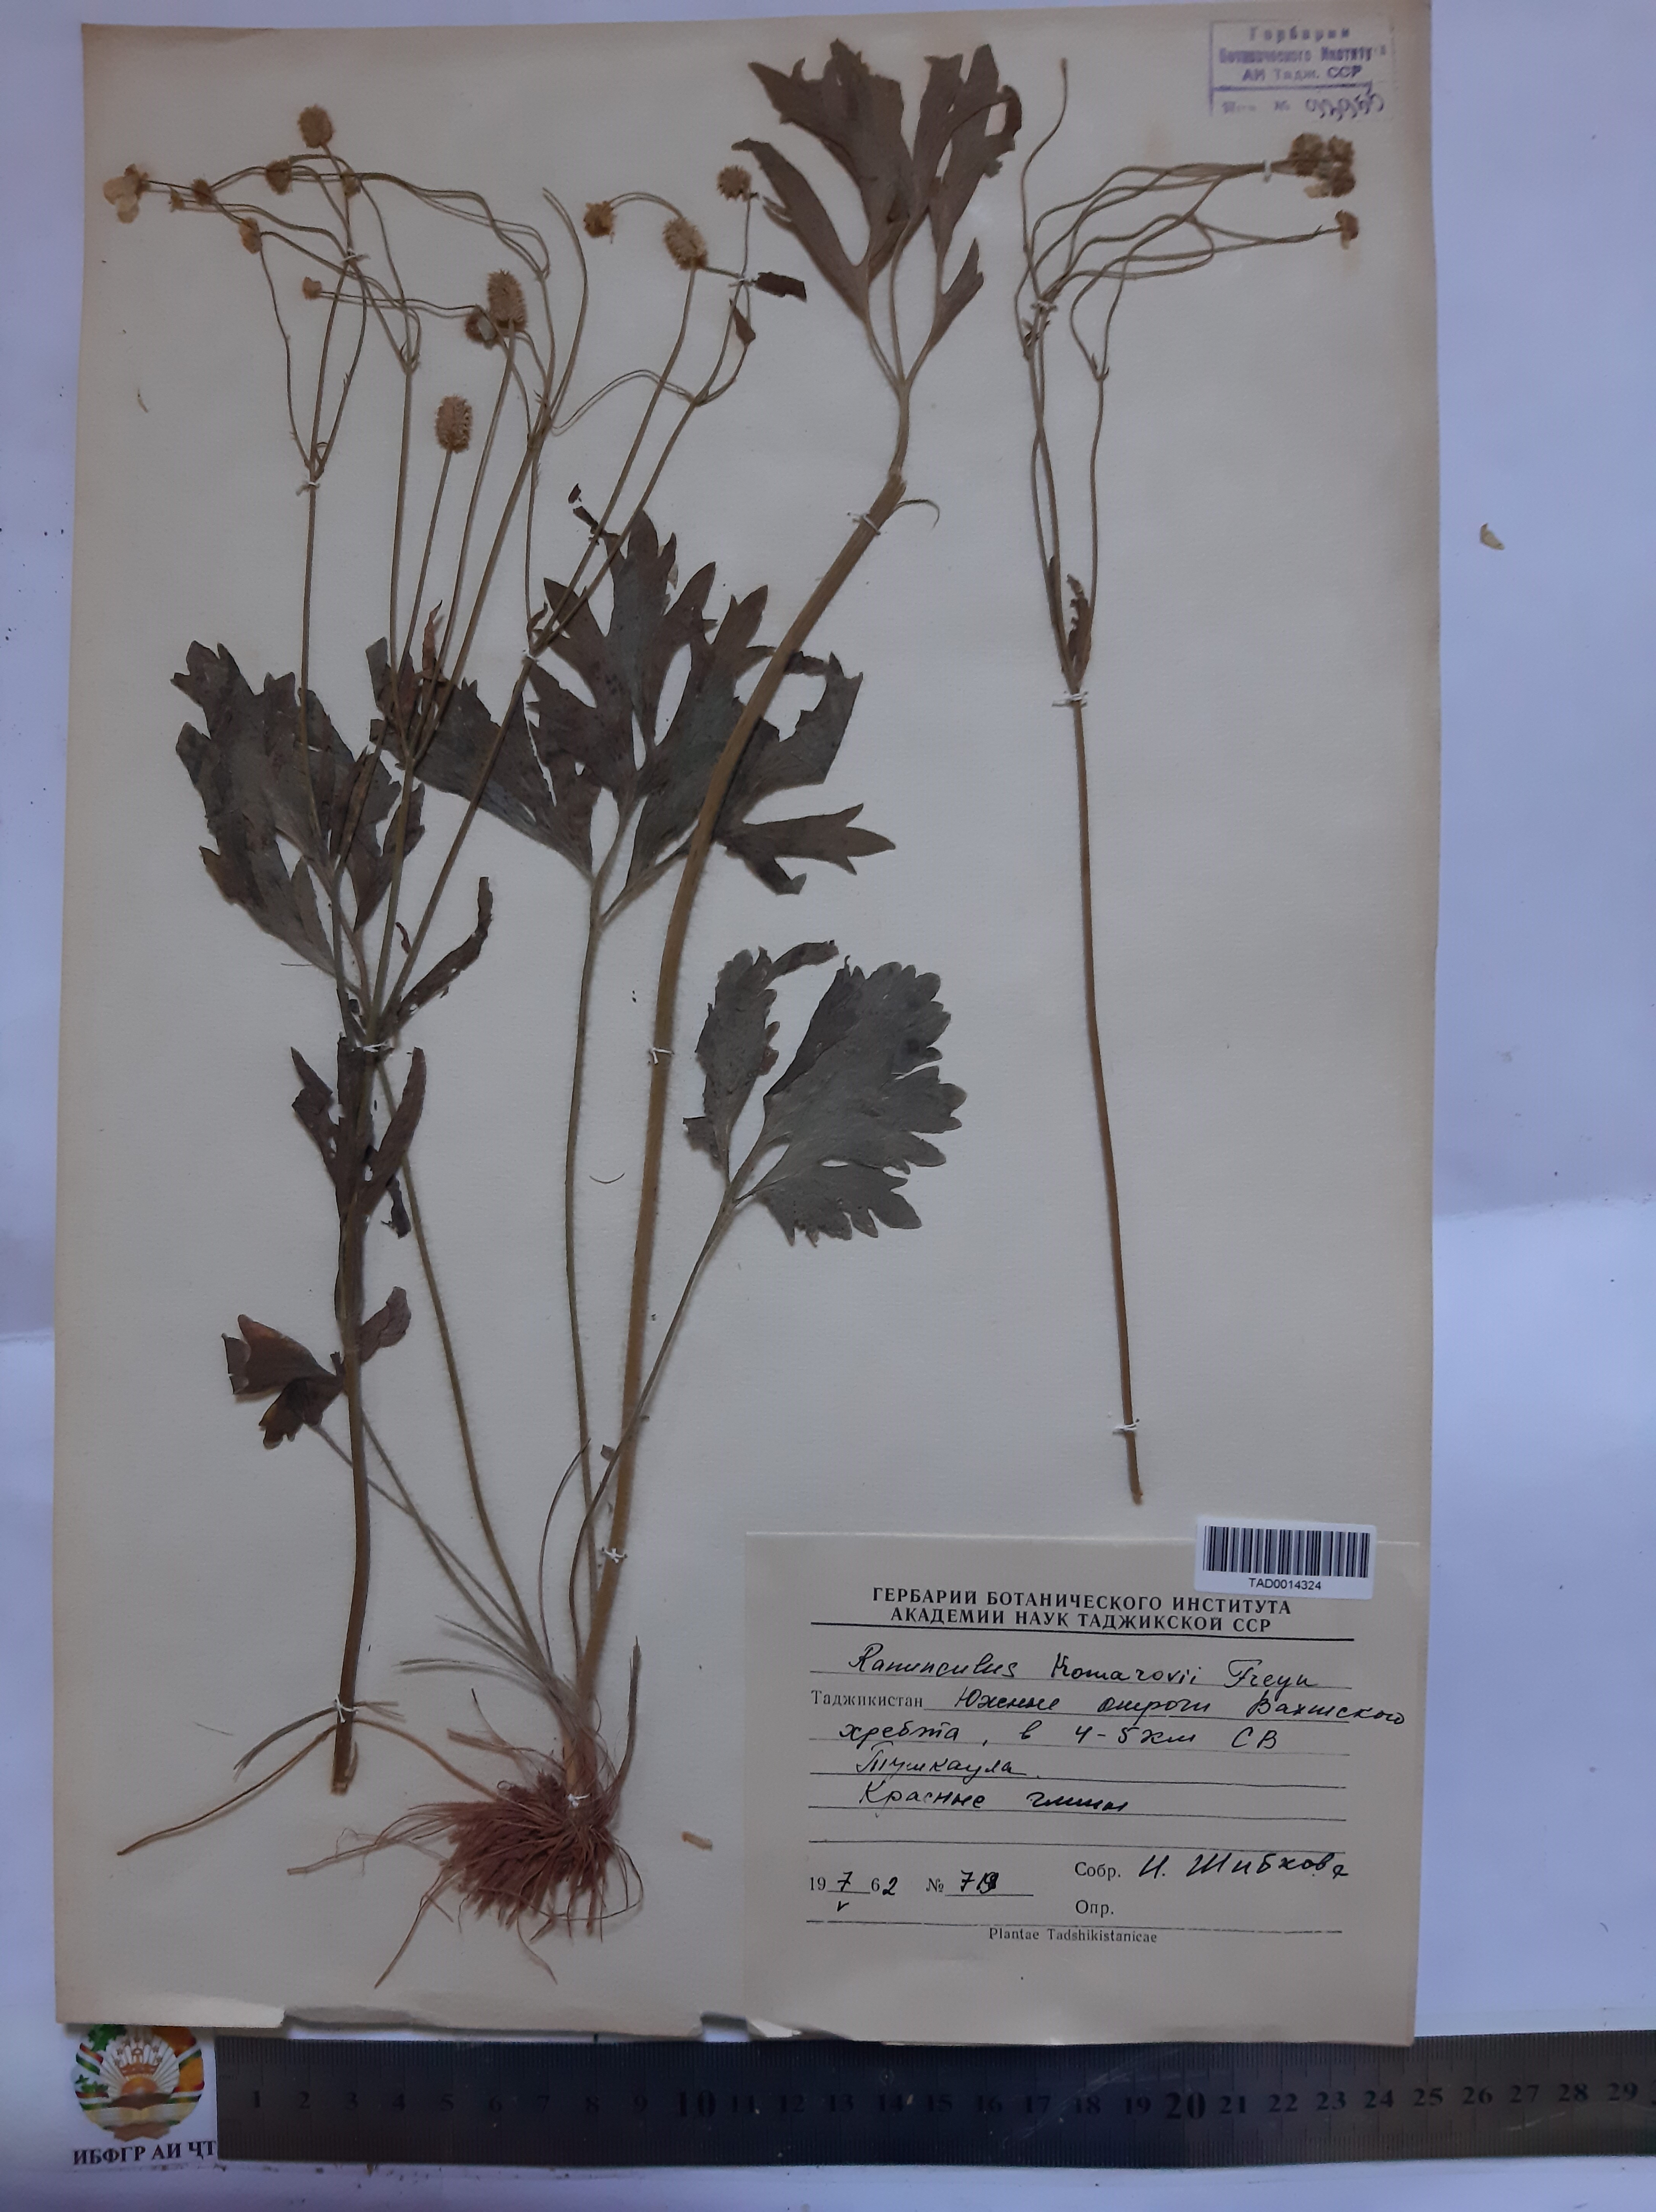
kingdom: Plantae
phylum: Tracheophyta
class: Magnoliopsida
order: Ranunculales
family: Ranunculaceae
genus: Ranunculus
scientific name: Ranunculus komarovii
